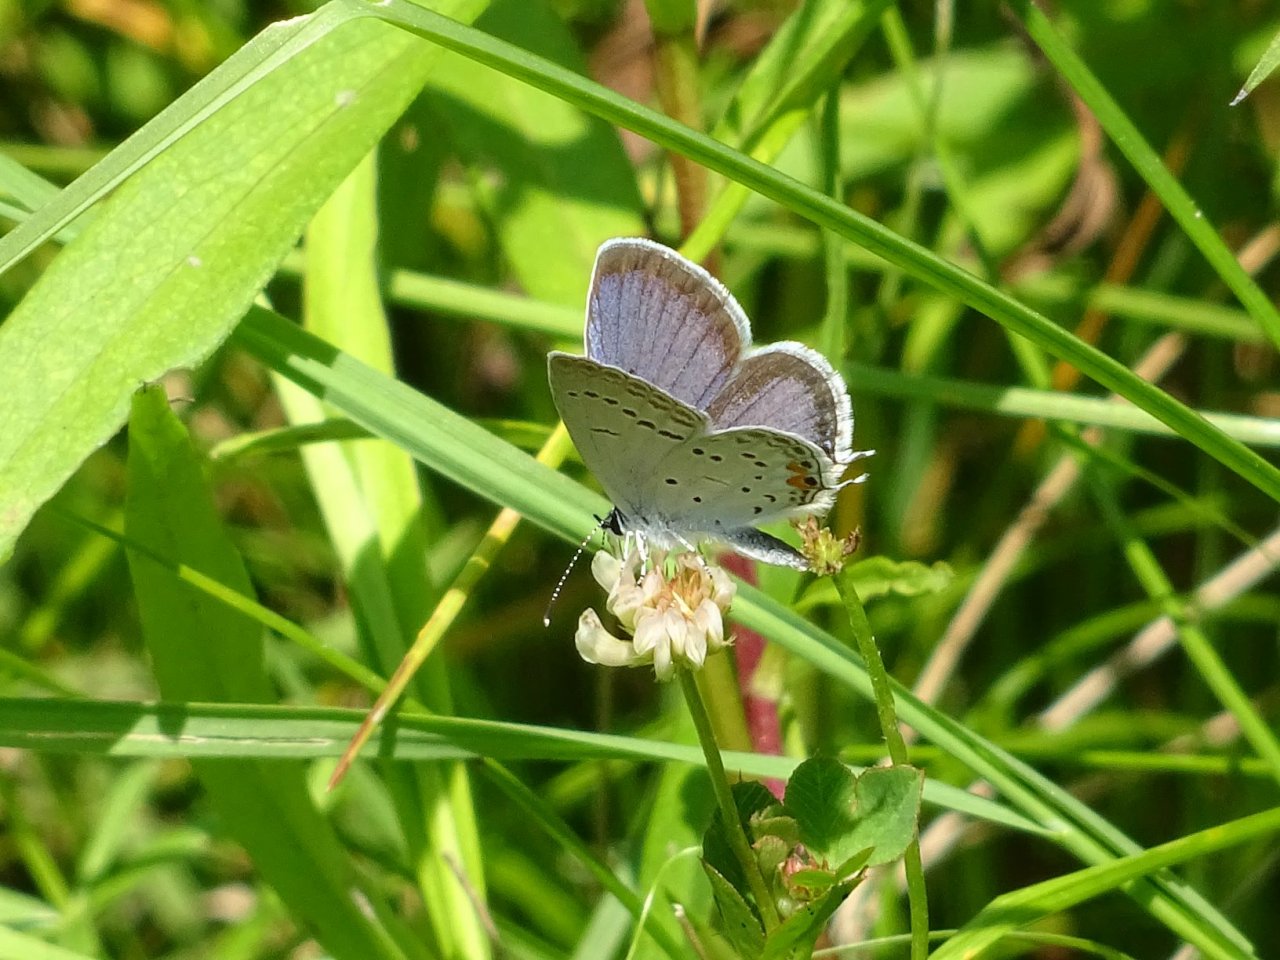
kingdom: Animalia
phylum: Arthropoda
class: Insecta
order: Lepidoptera
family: Lycaenidae
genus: Elkalyce
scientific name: Elkalyce comyntas
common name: Eastern Tailed-Blue
